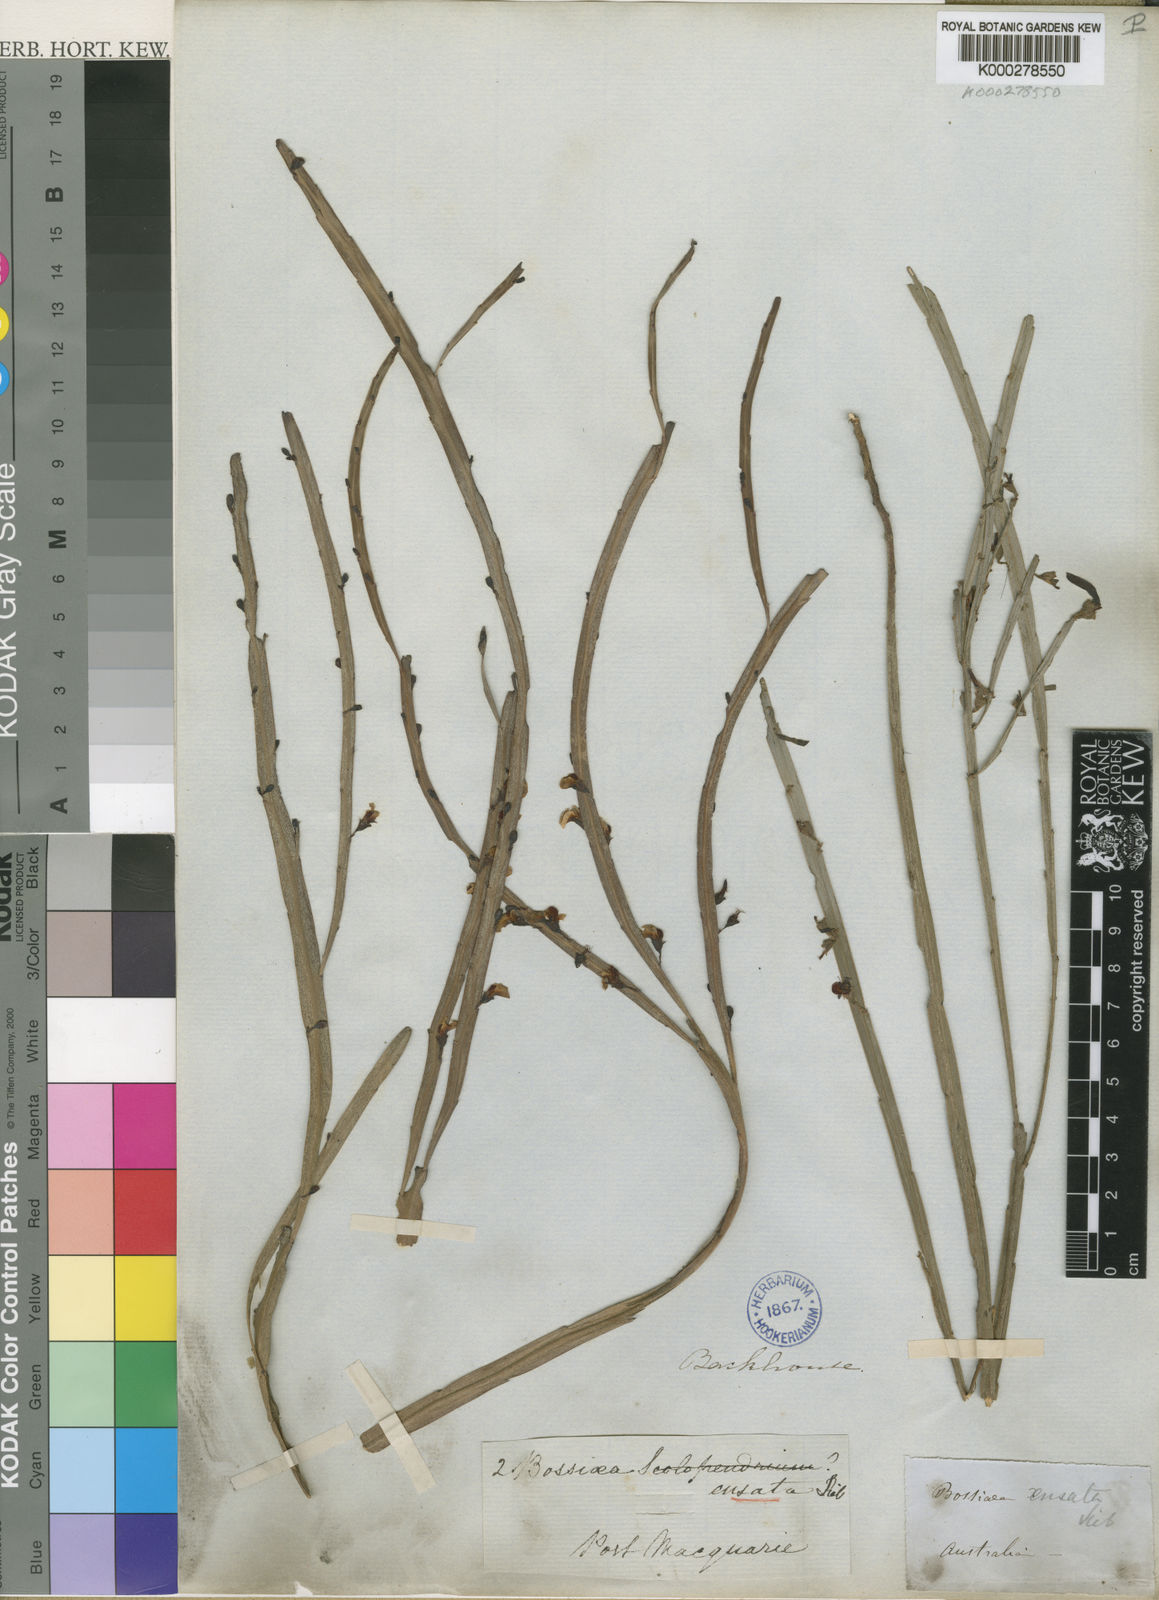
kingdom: Plantae
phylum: Tracheophyta
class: Magnoliopsida
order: Fabales
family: Fabaceae
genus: Bossiaea
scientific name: Bossiaea ensata
